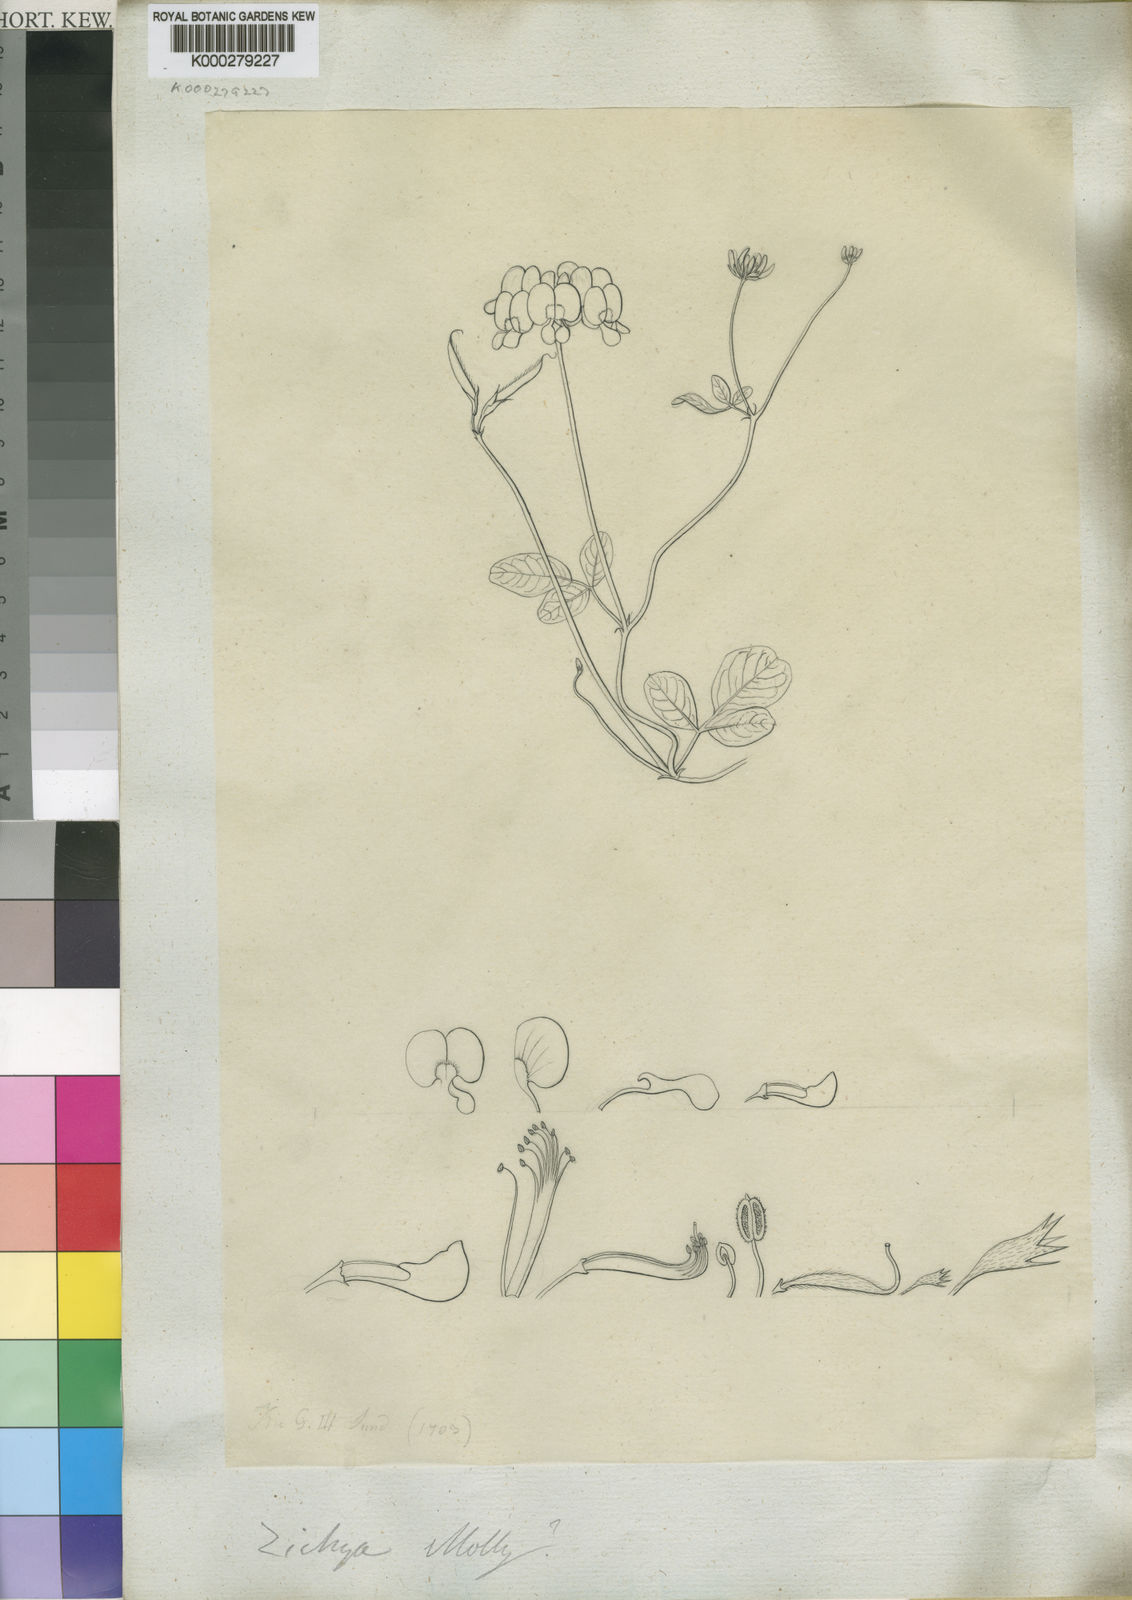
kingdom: Animalia
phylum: Arthropoda
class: Insecta
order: Orthoptera
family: Tettigoniidae
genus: Zichya
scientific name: Zichya
